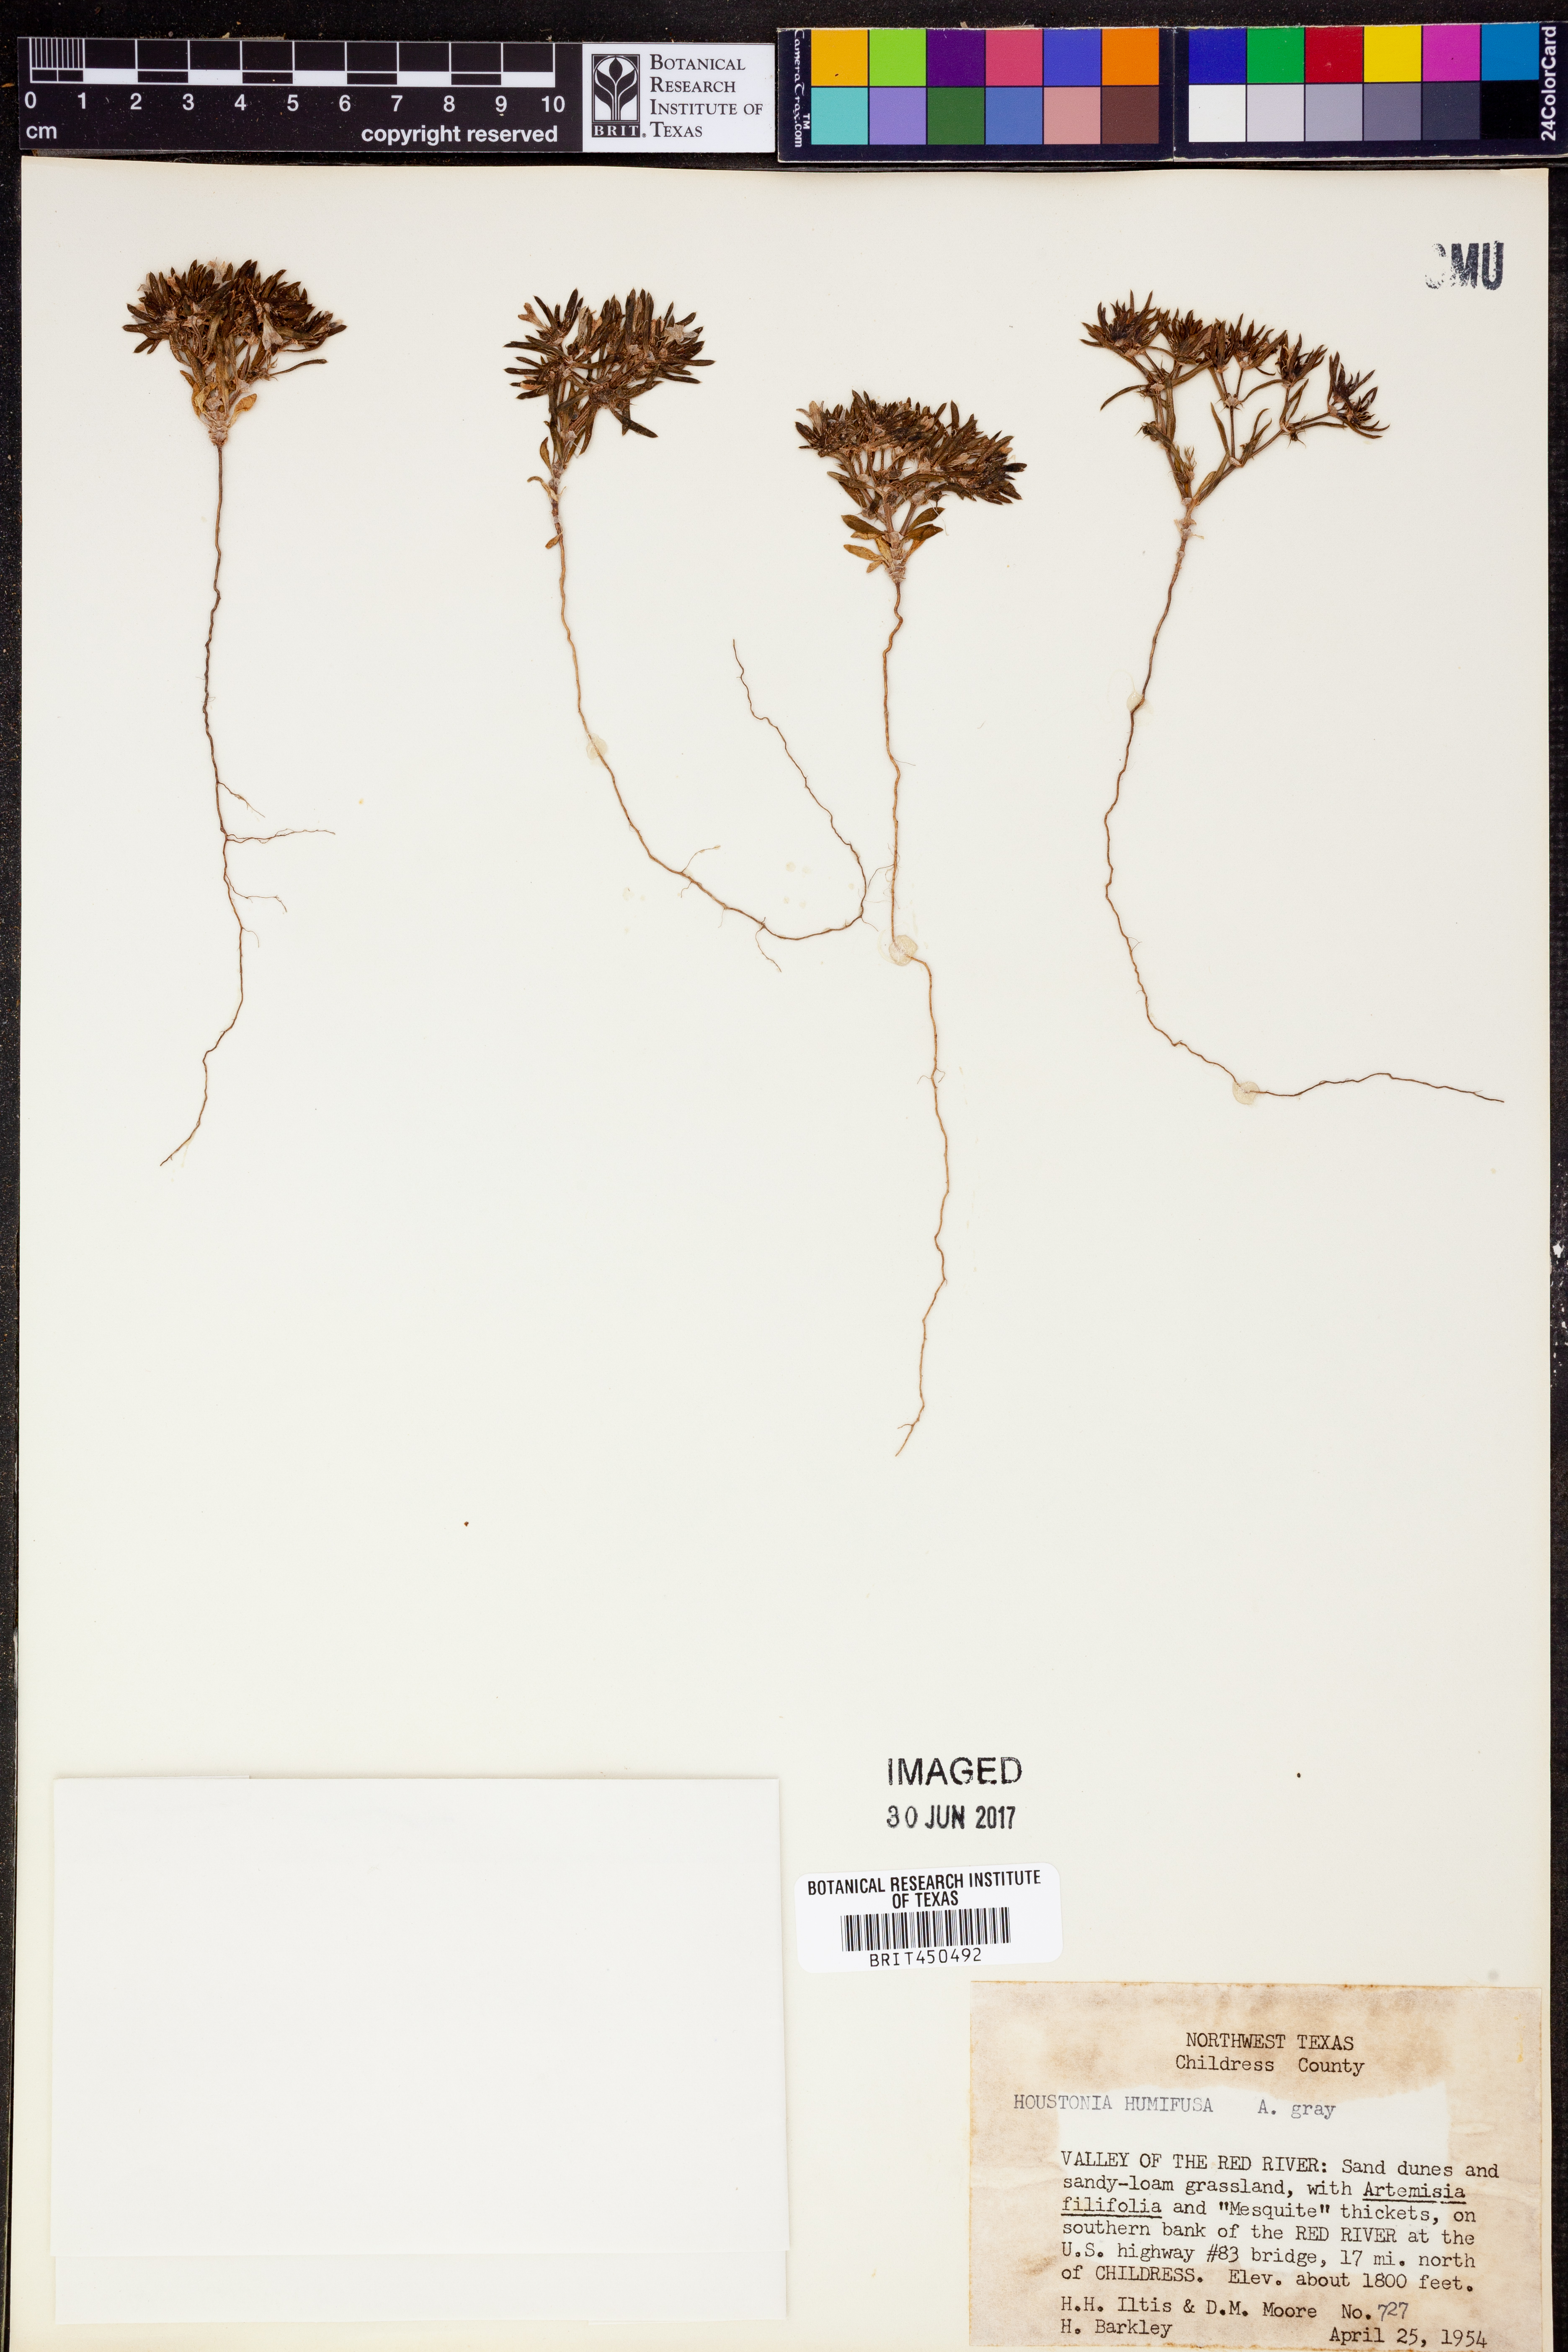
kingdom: Plantae
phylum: Tracheophyta
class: Magnoliopsida
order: Gentianales
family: Rubiaceae
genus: Houstonia
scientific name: Houstonia humifusa
